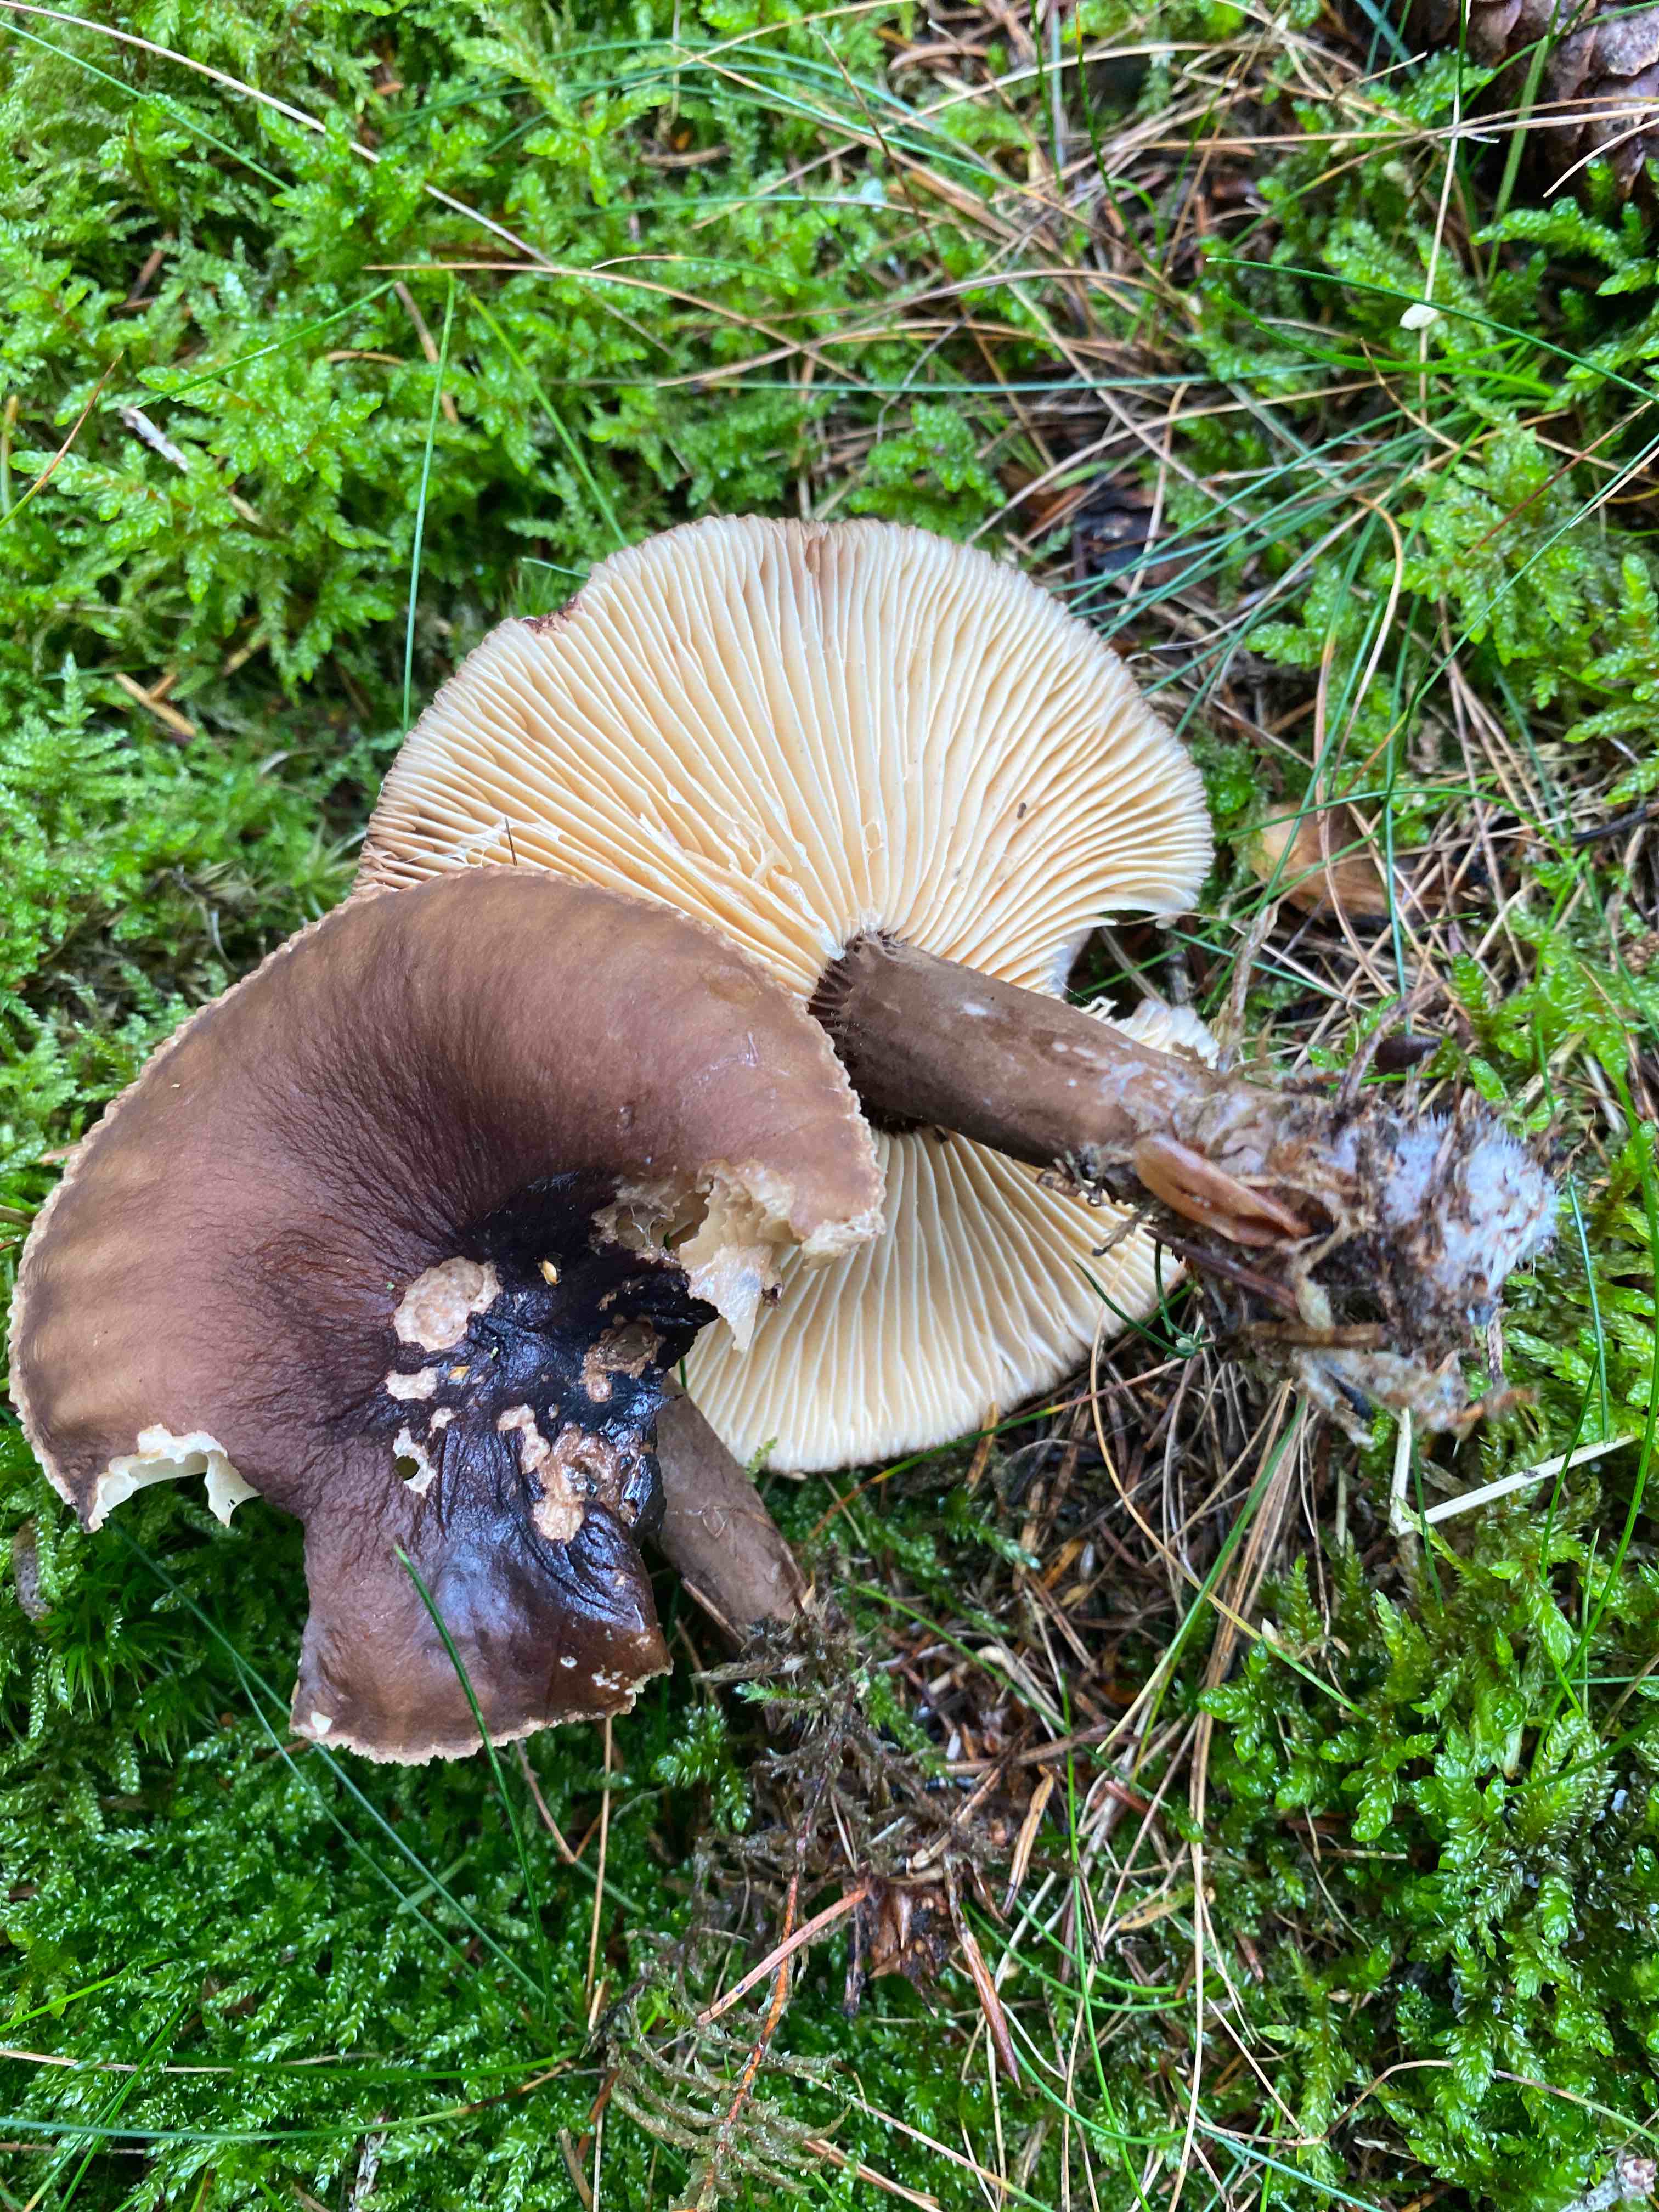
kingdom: Fungi
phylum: Basidiomycota
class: Agaricomycetes
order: Russulales
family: Russulaceae
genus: Lactarius
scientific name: Lactarius lignyotus
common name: fløjls-mælkehat
